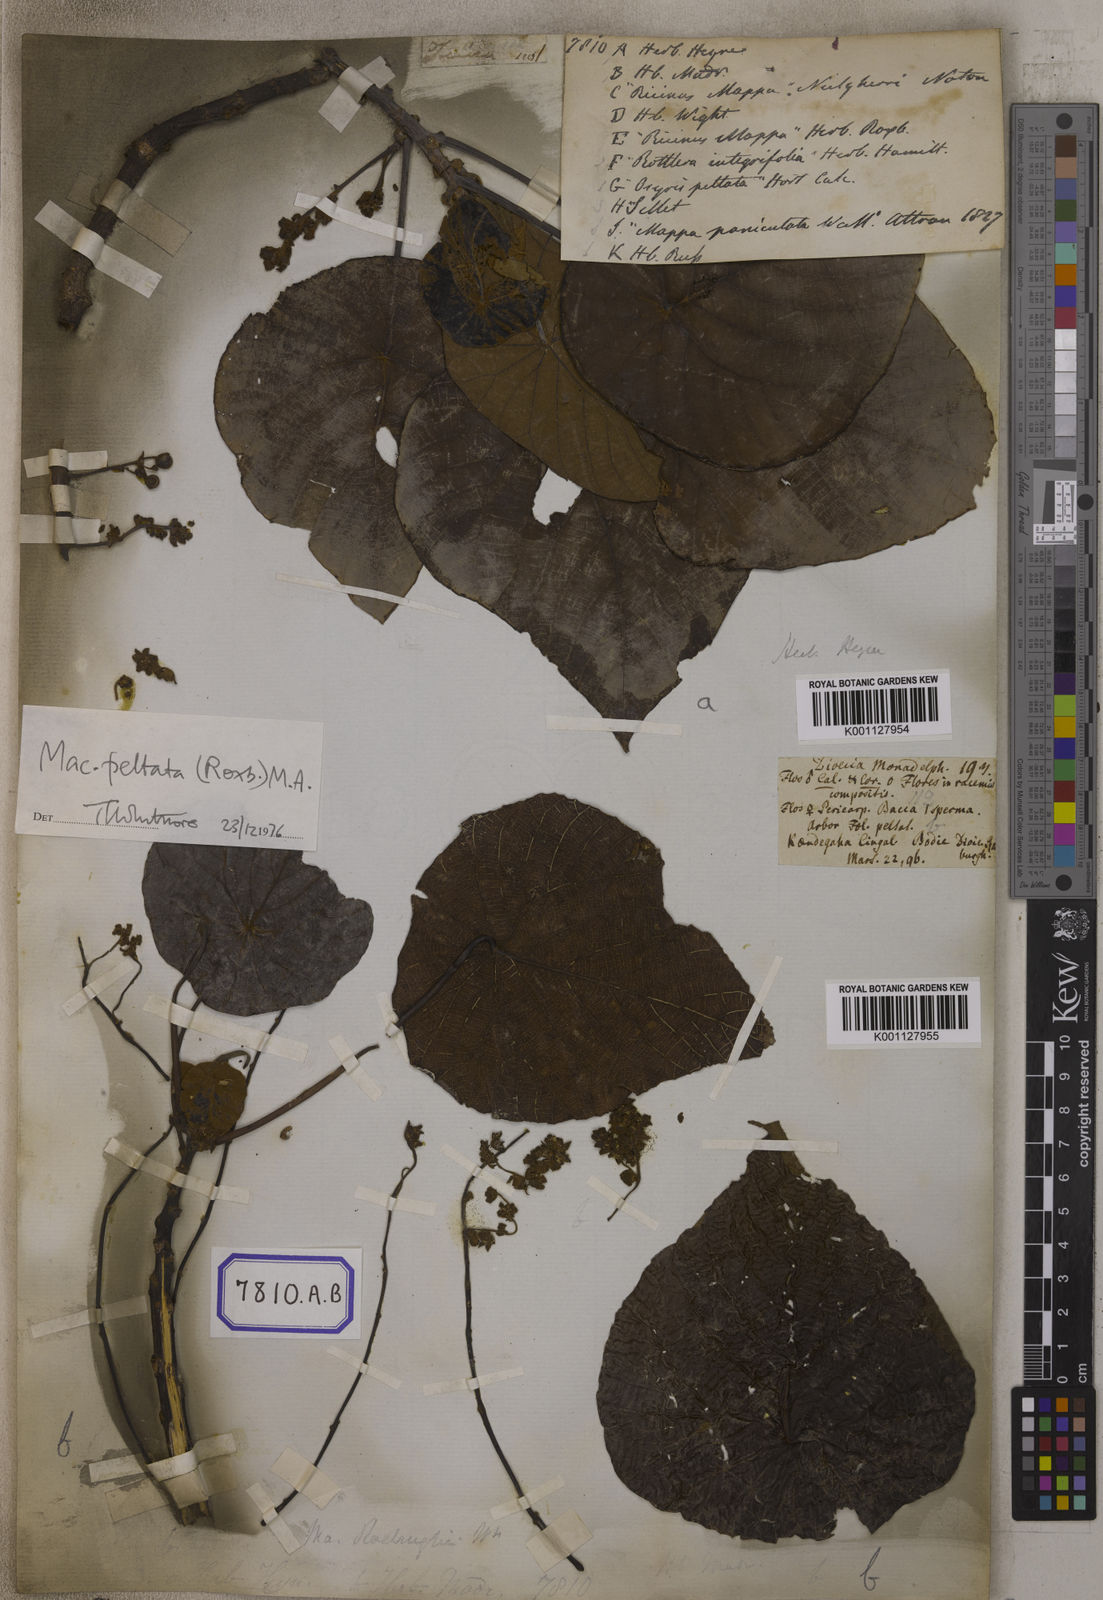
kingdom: Plantae
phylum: Tracheophyta
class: Magnoliopsida
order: Malpighiales
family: Euphorbiaceae
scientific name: Euphorbiaceae
